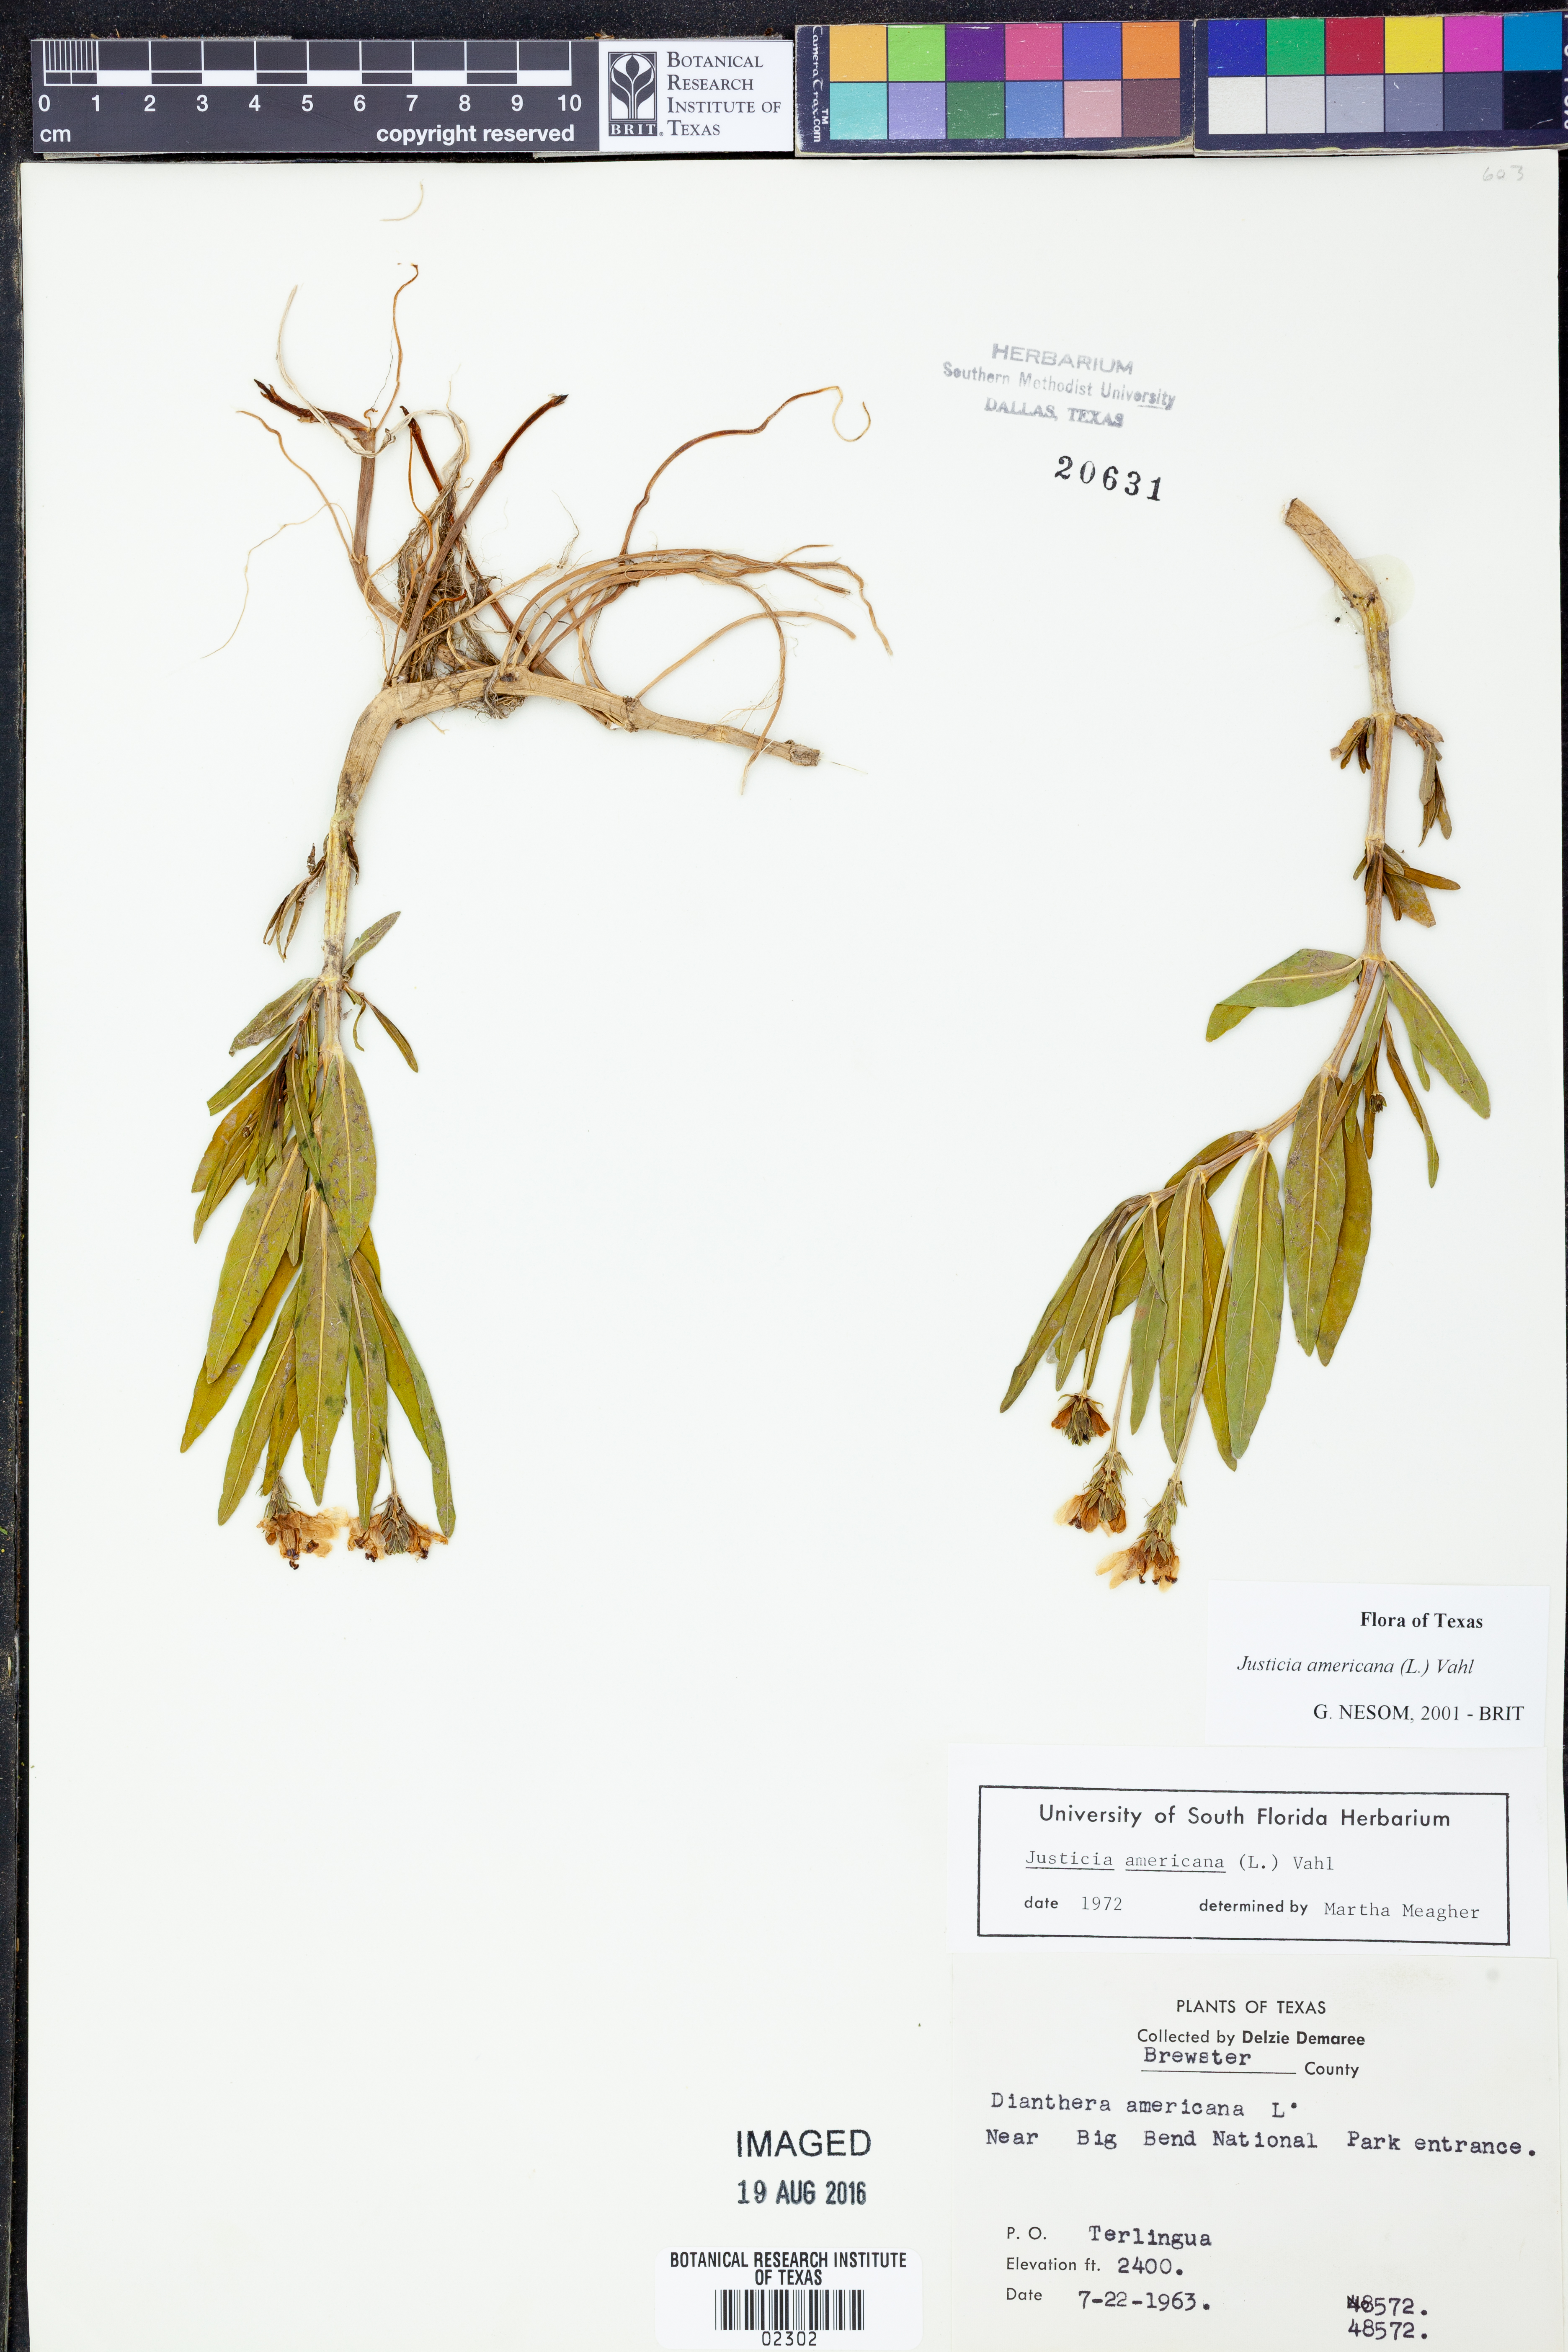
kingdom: Plantae
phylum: Tracheophyta
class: Magnoliopsida
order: Lamiales
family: Acanthaceae
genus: Dianthera
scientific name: Dianthera americana
